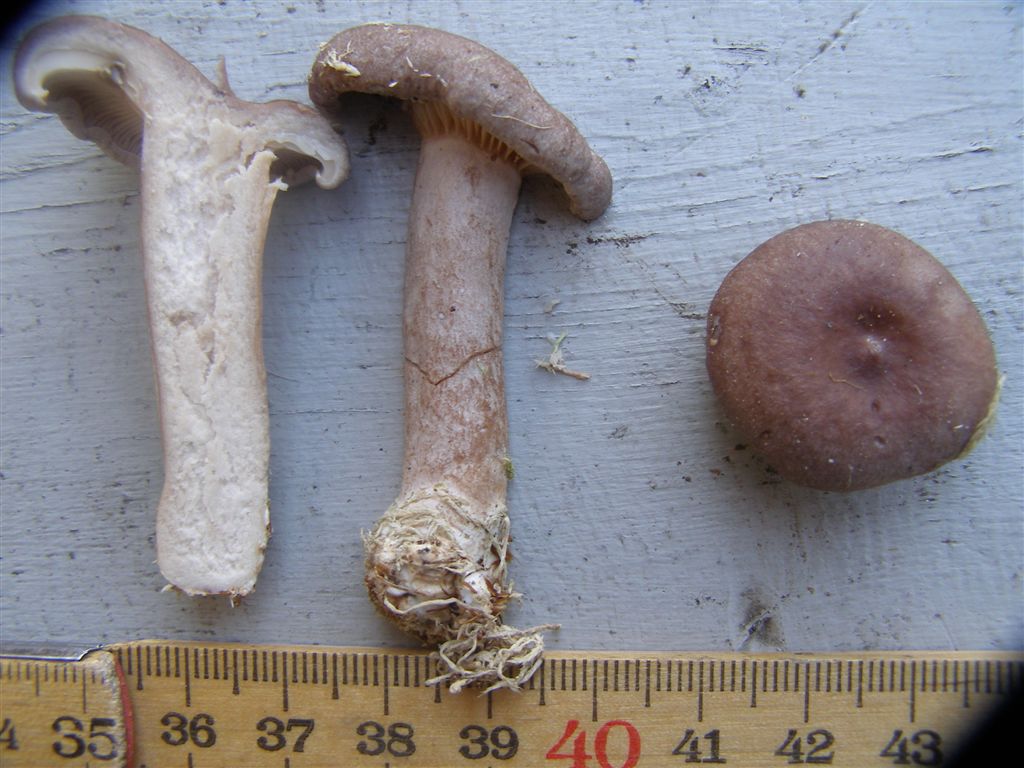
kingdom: Fungi
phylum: Basidiomycota
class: Agaricomycetes
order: Russulales
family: Russulaceae
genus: Lactarius
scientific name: Lactarius vietus
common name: violetgrå mælkehat
